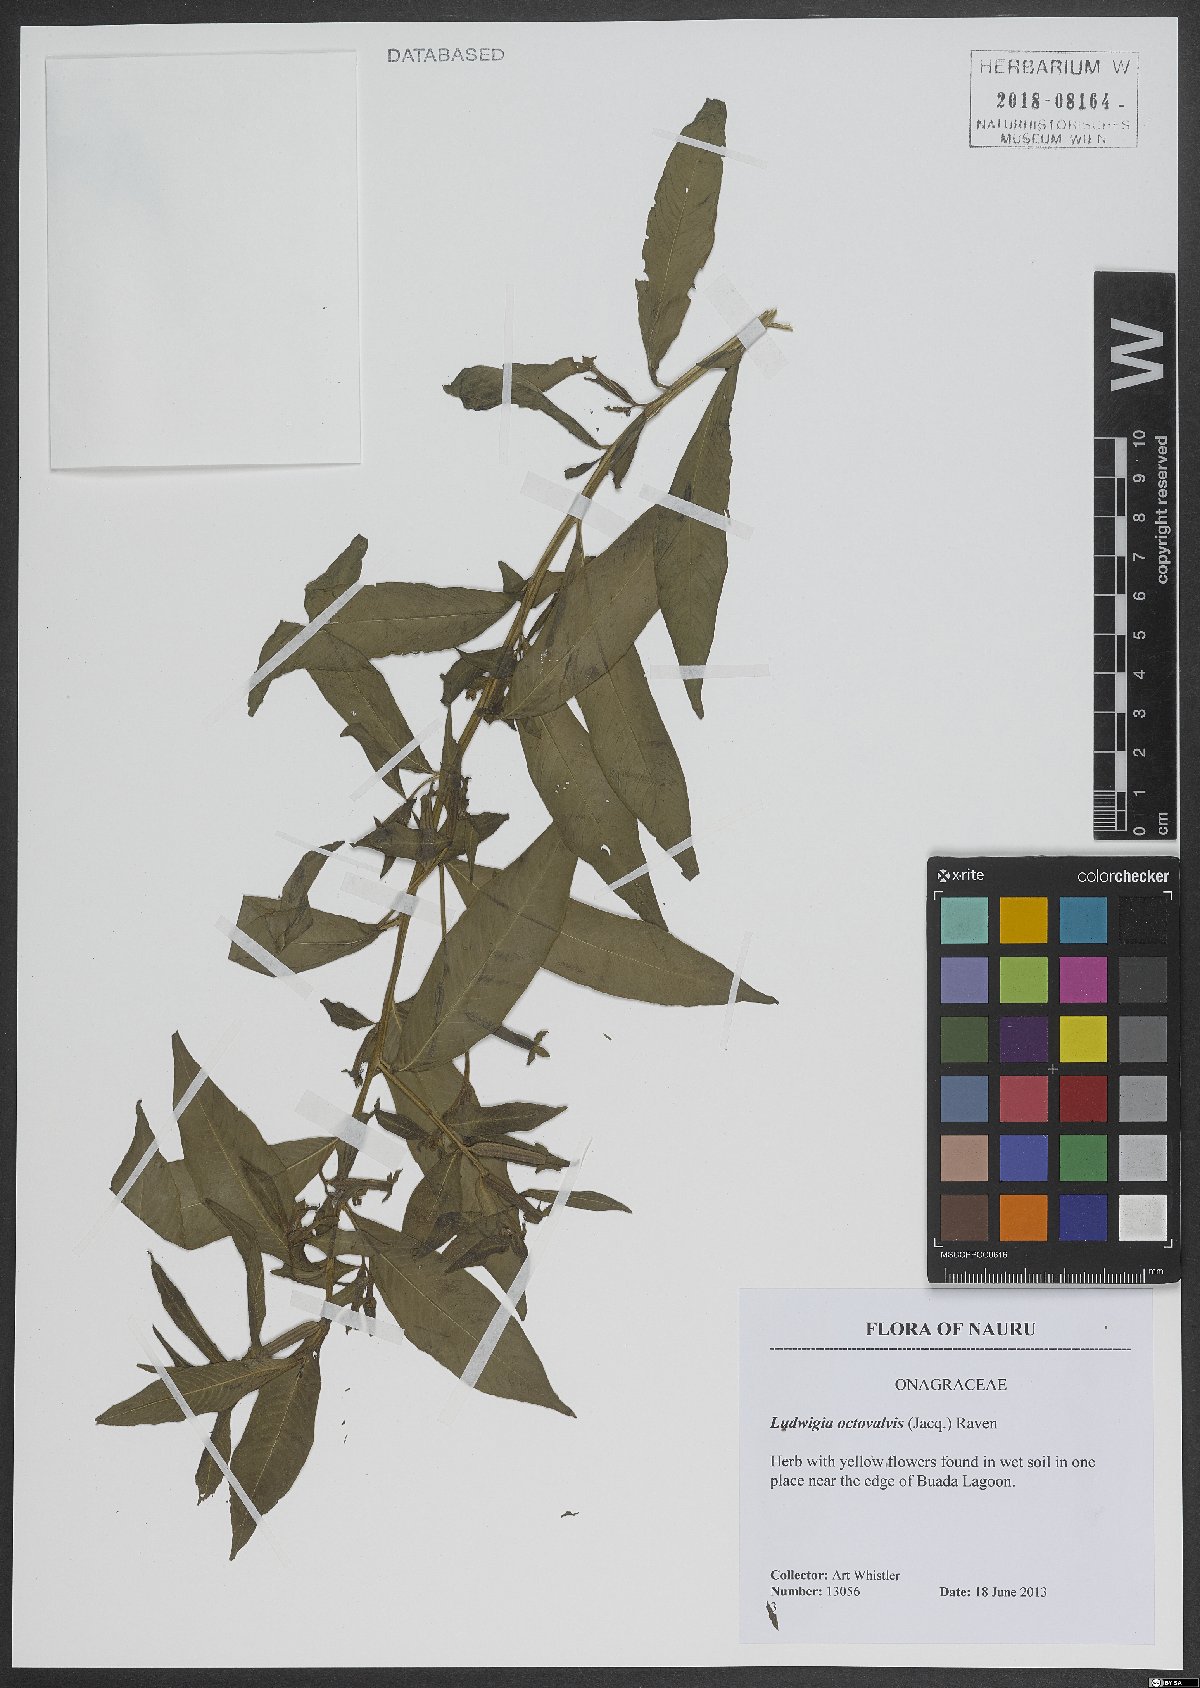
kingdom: Plantae
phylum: Tracheophyta
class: Magnoliopsida
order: Myrtales
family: Onagraceae
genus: Ludwigia
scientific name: Ludwigia octovalvis
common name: Water-primrose
